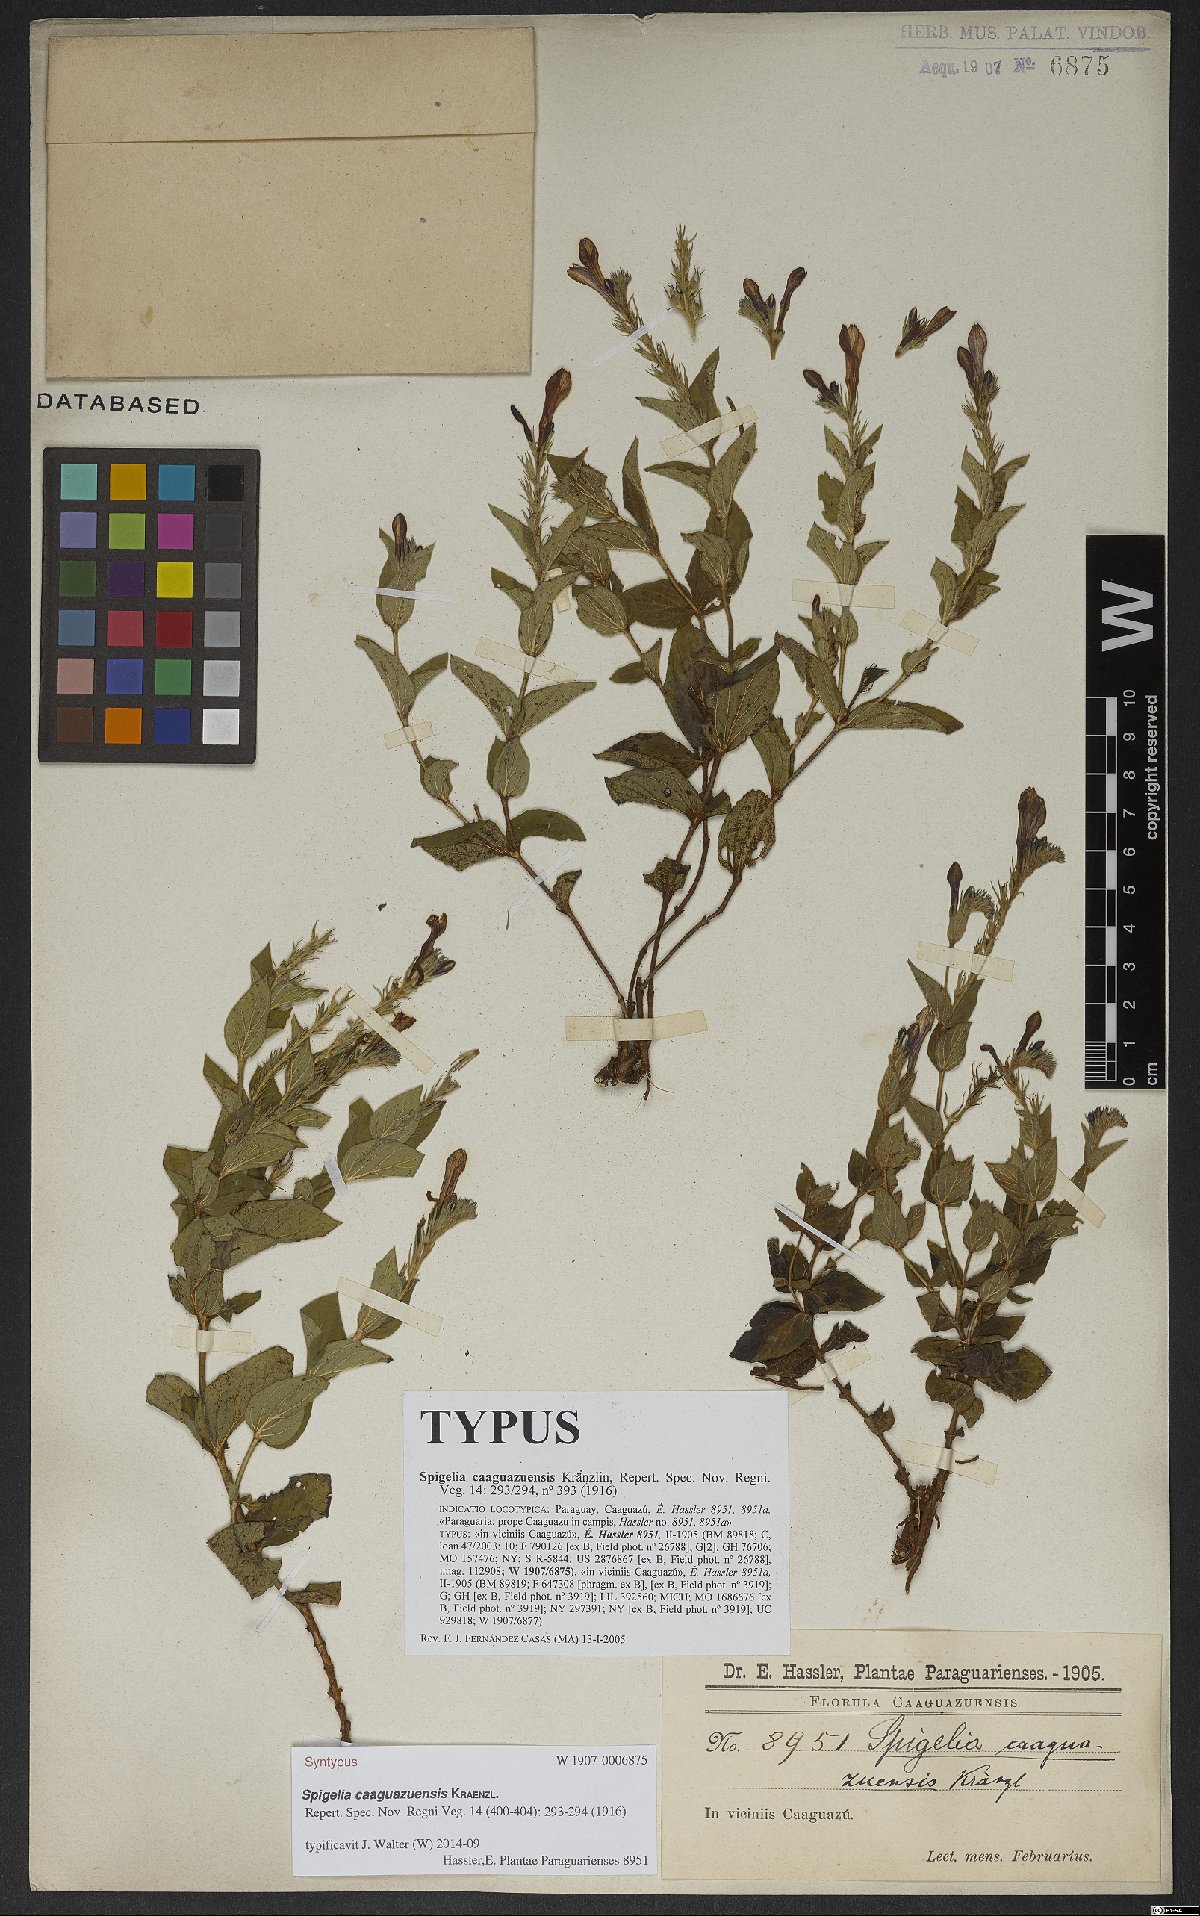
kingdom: Plantae
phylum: Tracheophyta
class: Magnoliopsida
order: Gentianales
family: Loganiaceae
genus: Spigelia
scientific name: Spigelia caaguazuensis
